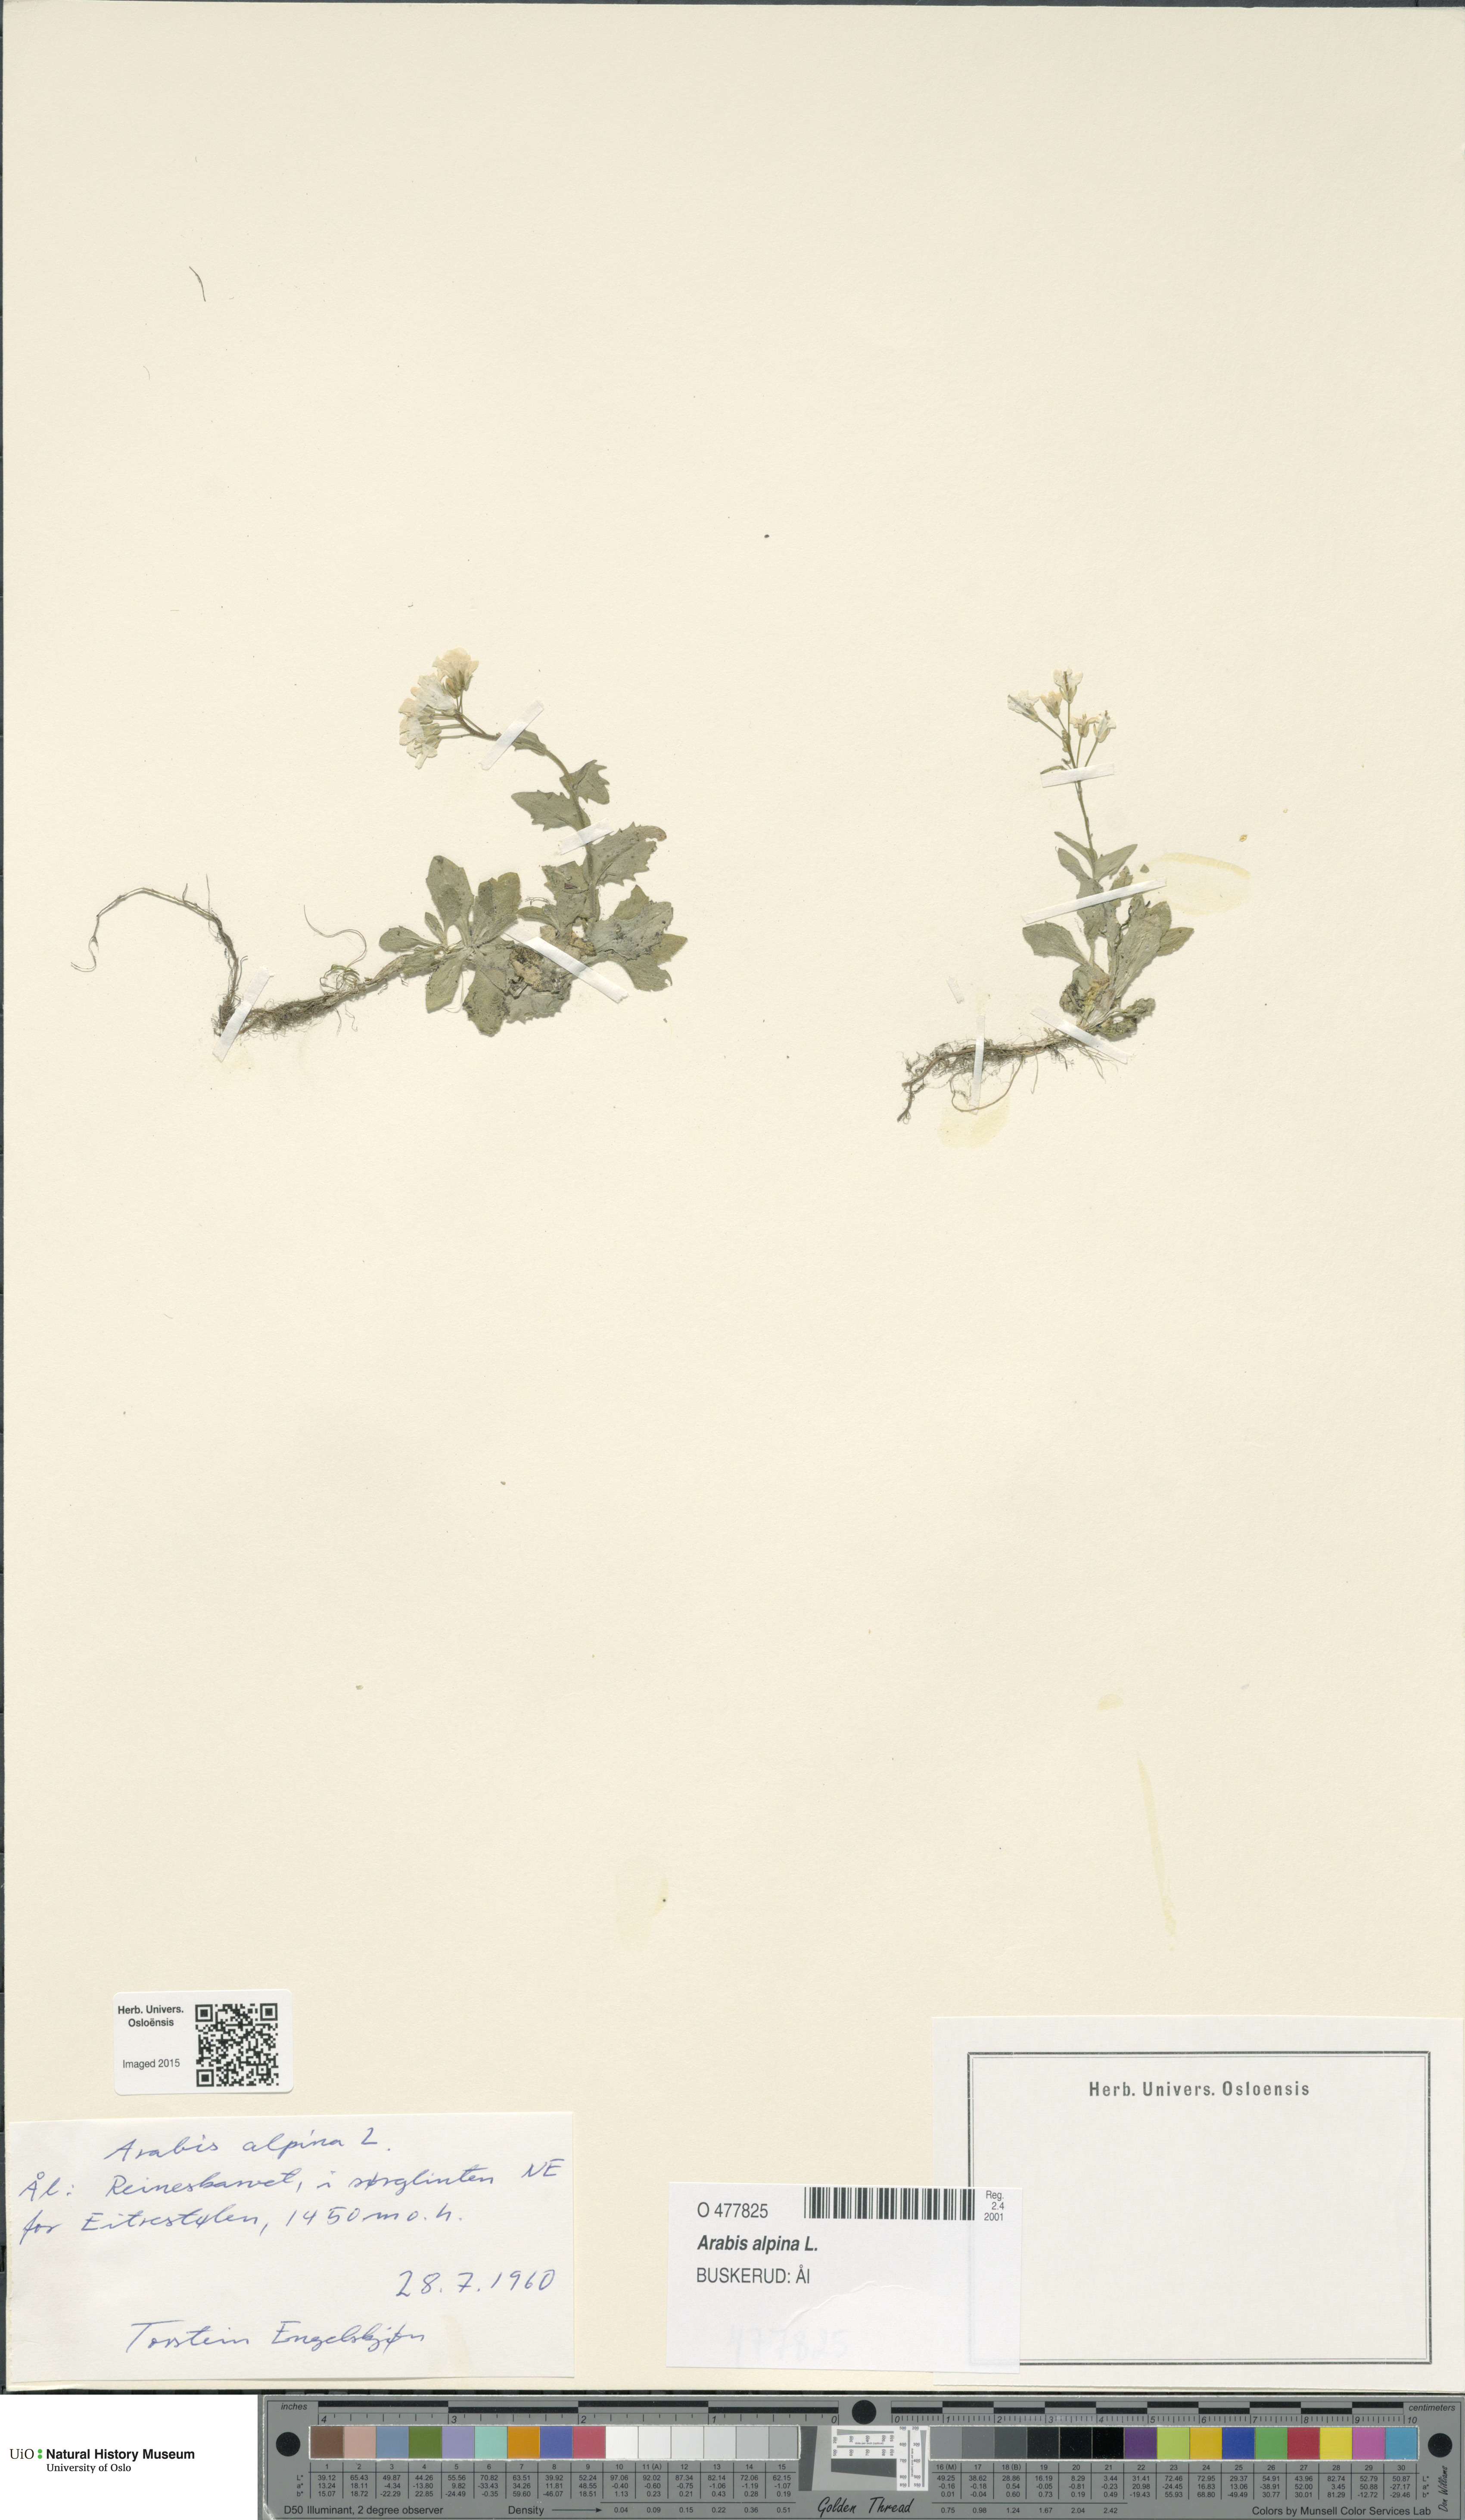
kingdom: Plantae
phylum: Tracheophyta
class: Magnoliopsida
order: Brassicales
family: Brassicaceae
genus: Arabis
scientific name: Arabis alpina
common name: Alpine rock-cress
